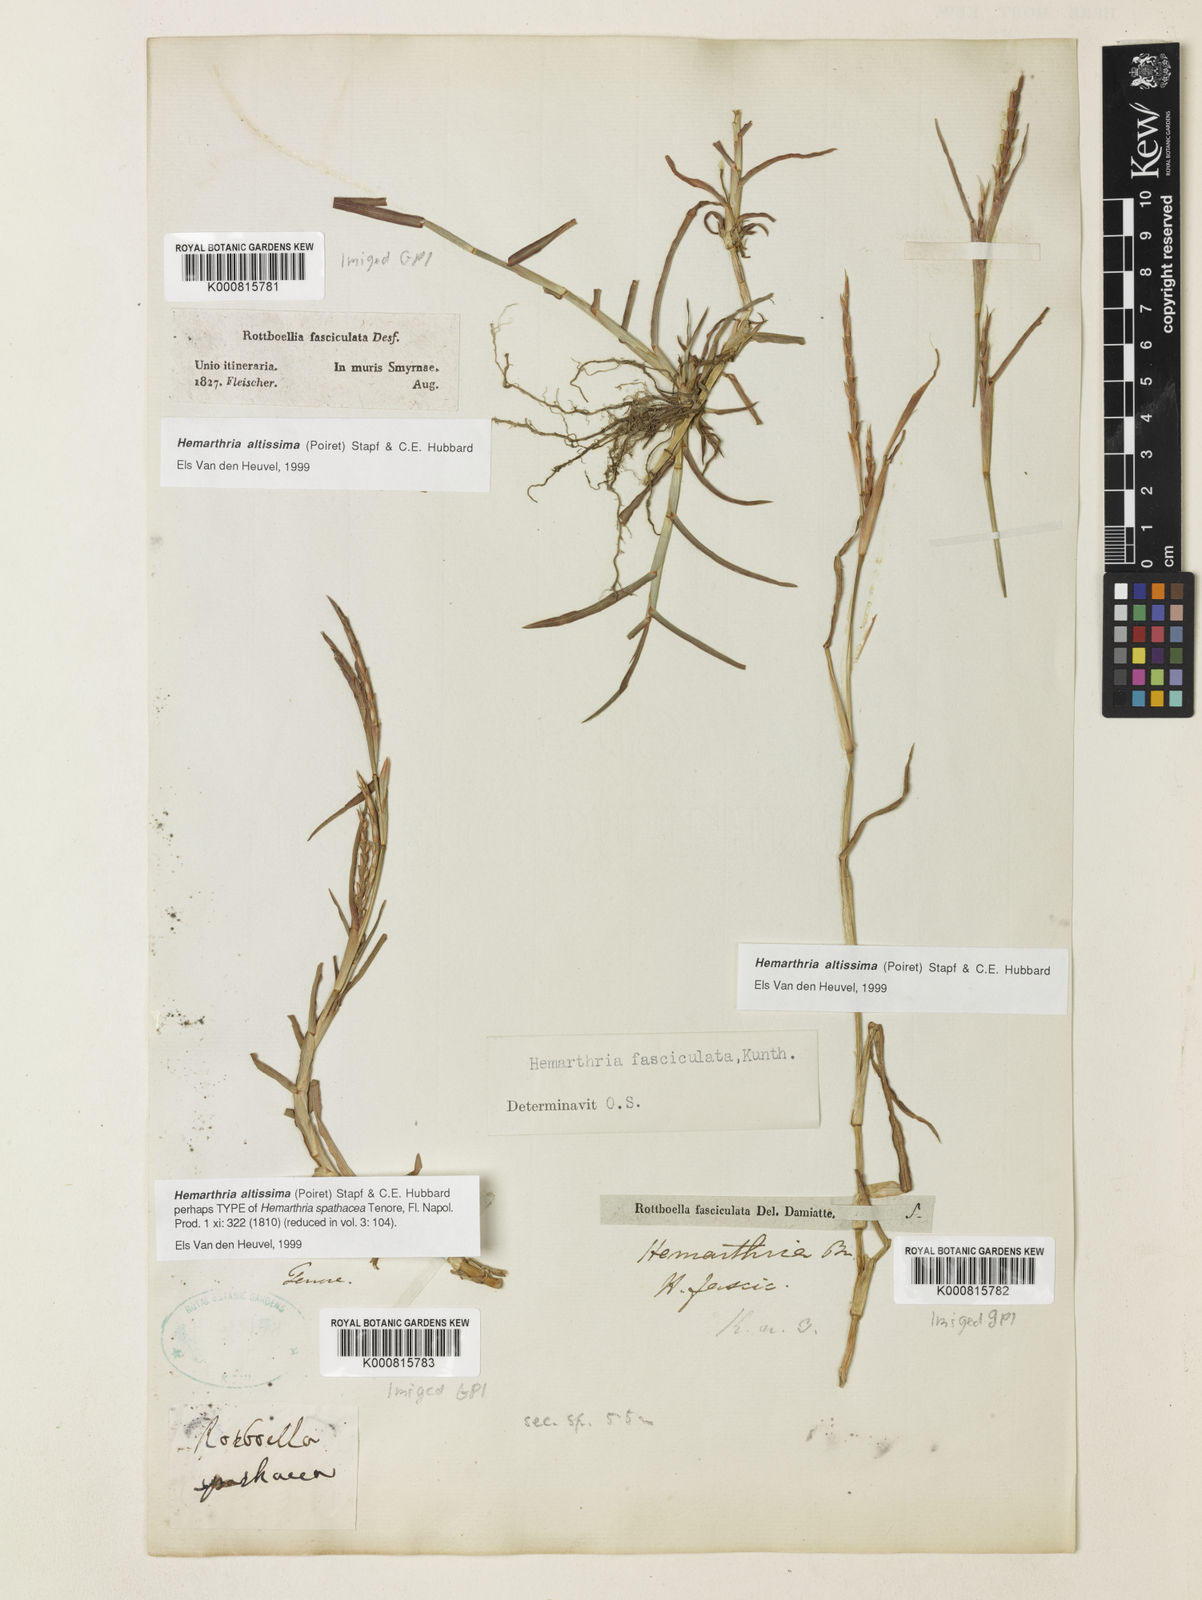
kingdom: Plantae
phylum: Tracheophyta
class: Liliopsida
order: Poales
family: Poaceae
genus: Hemarthria
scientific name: Hemarthria altissima
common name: African jointgrass
